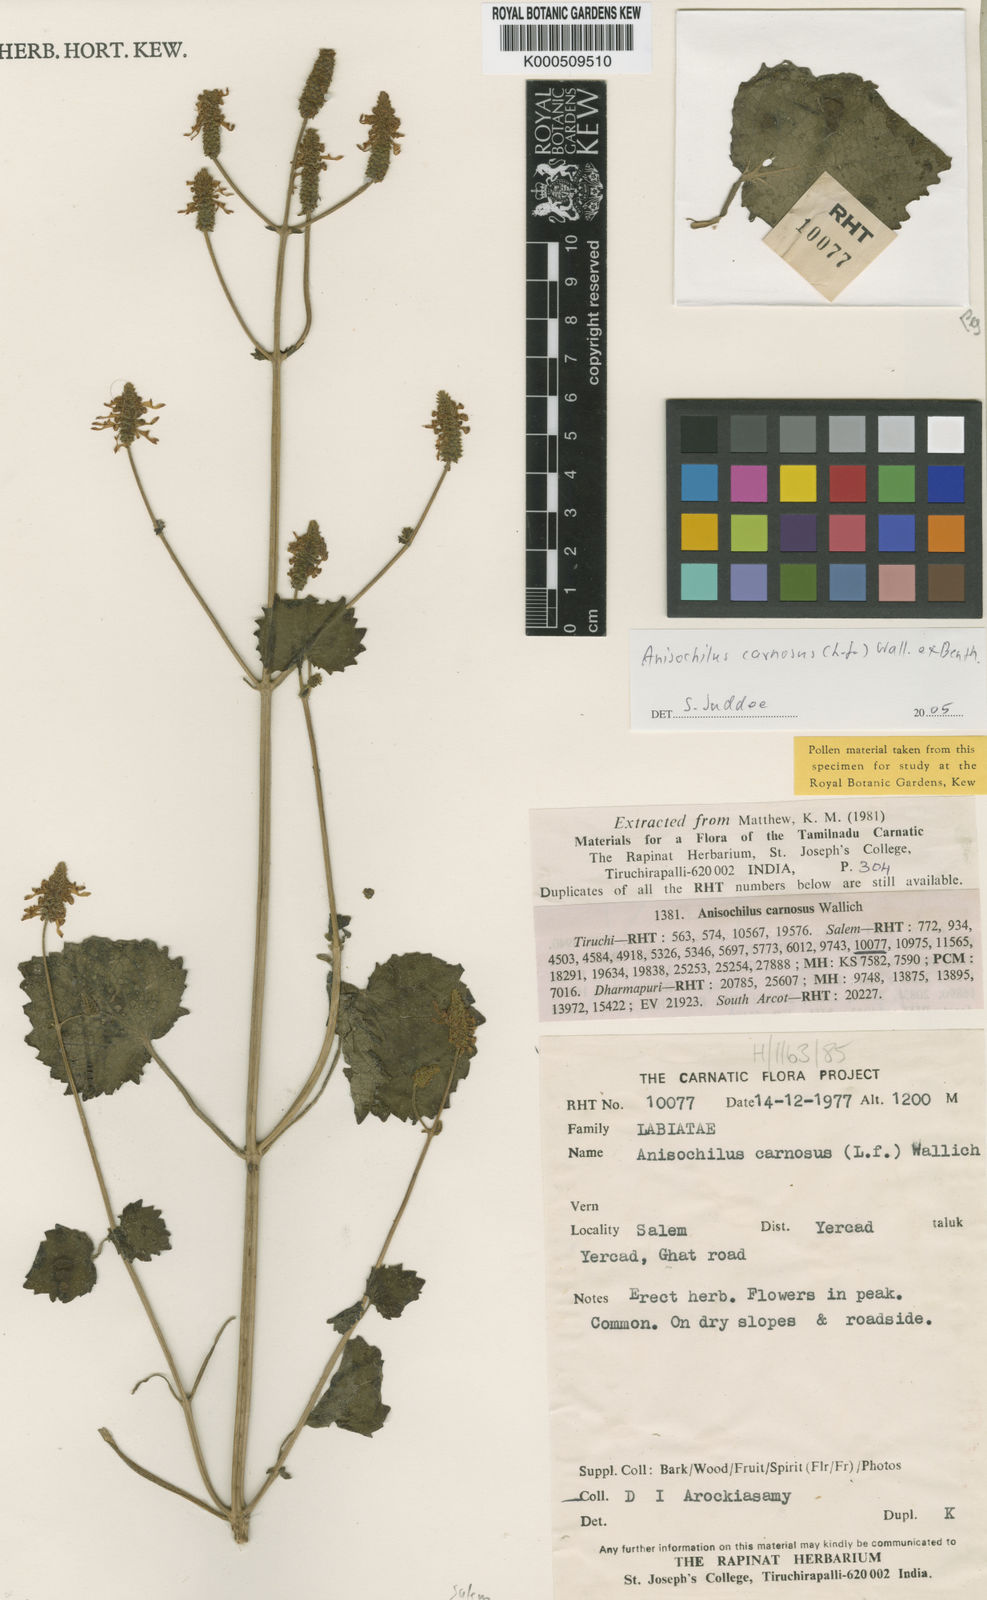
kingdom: Plantae
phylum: Tracheophyta
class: Magnoliopsida
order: Lamiales
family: Lamiaceae
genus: Anisochilus
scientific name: Anisochilus
